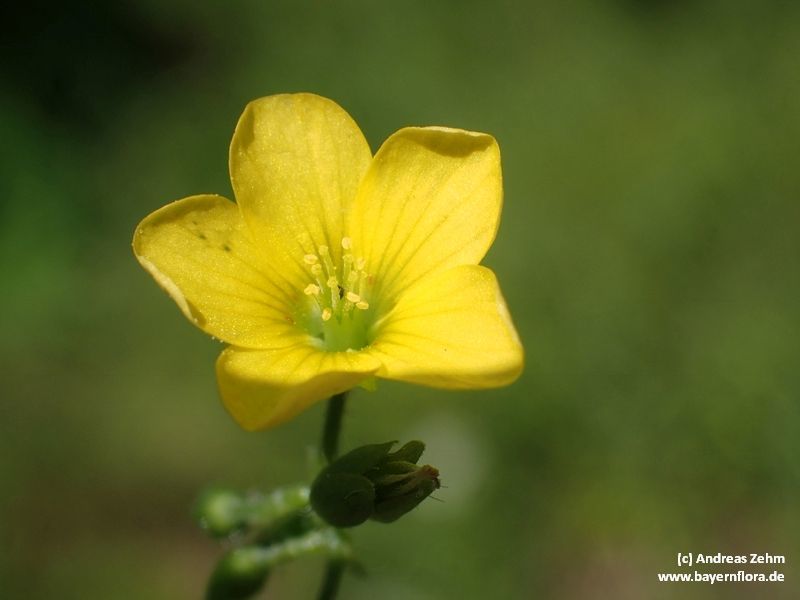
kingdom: Plantae
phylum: Tracheophyta
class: Magnoliopsida
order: Oxalidales
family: Oxalidaceae
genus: Oxalis
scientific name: Oxalis stricta
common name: Upright yellow-sorrel
